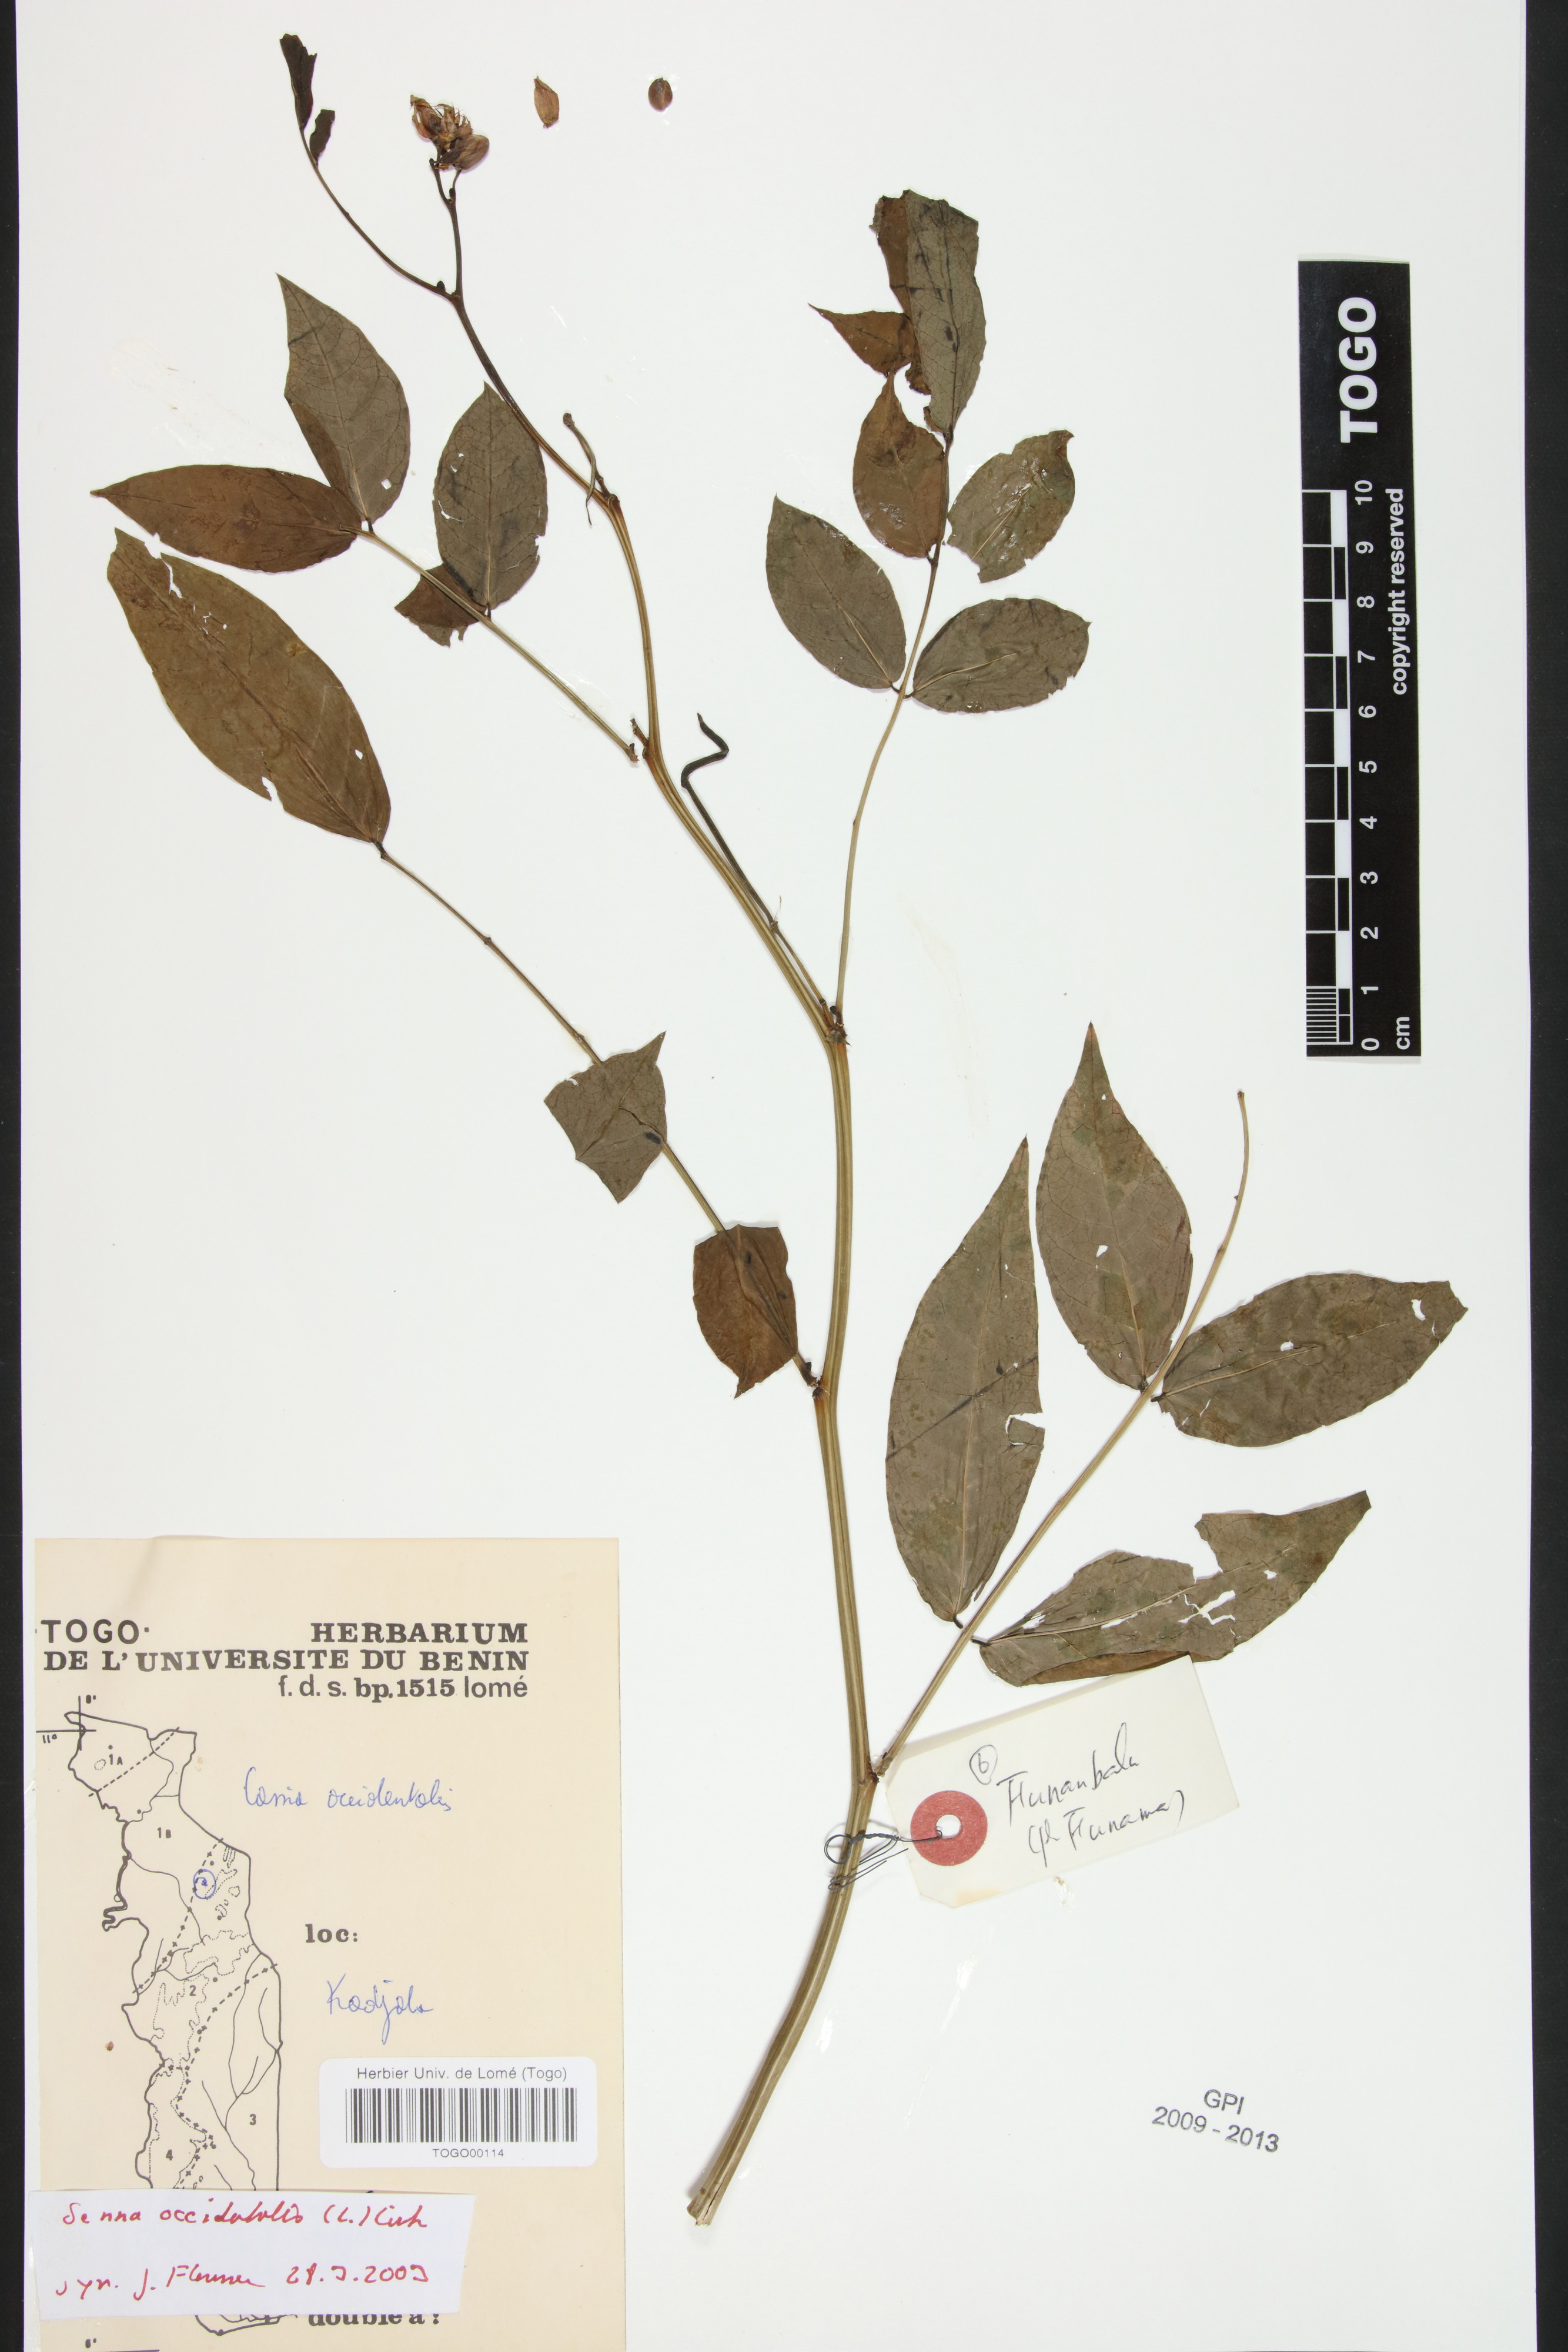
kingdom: Plantae
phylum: Tracheophyta
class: Magnoliopsida
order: Fabales
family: Fabaceae
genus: Senna
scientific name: Senna occidentalis
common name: Septicweed
